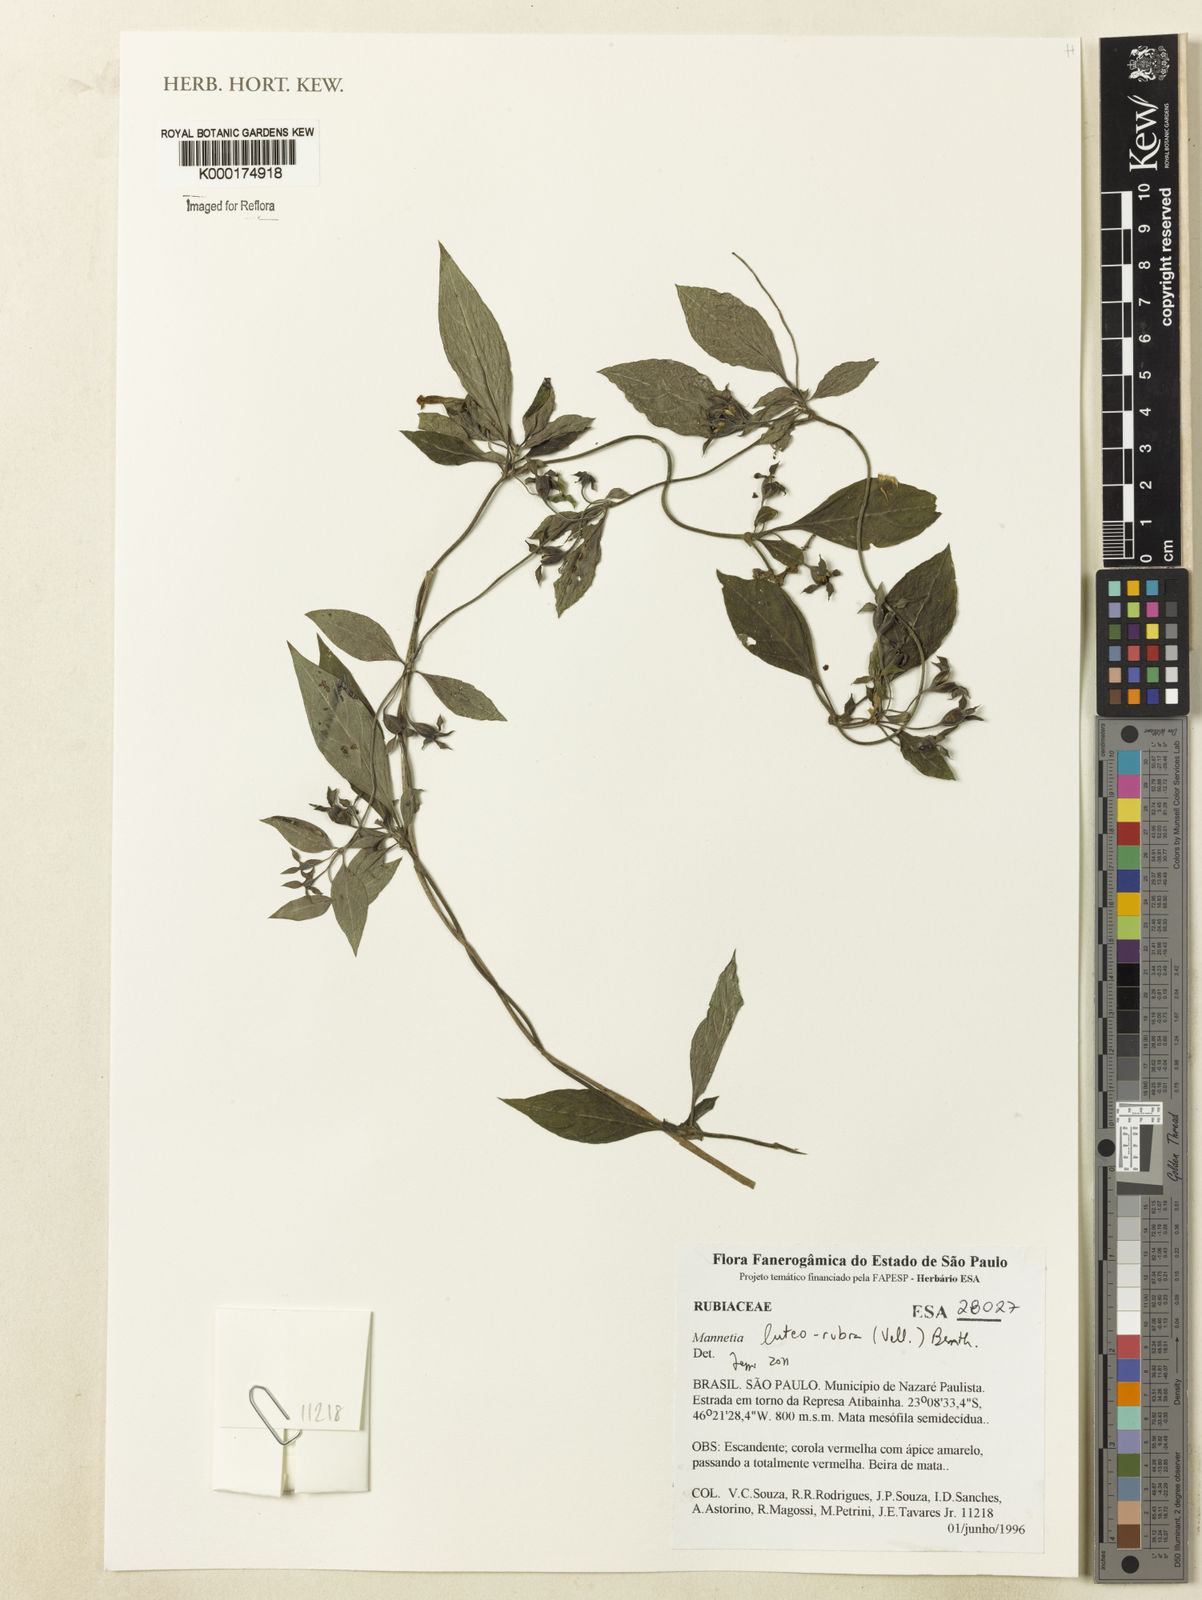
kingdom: Plantae
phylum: Tracheophyta
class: Magnoliopsida
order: Gentianales
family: Rubiaceae
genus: Manettia
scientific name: Manettia luteorubra
